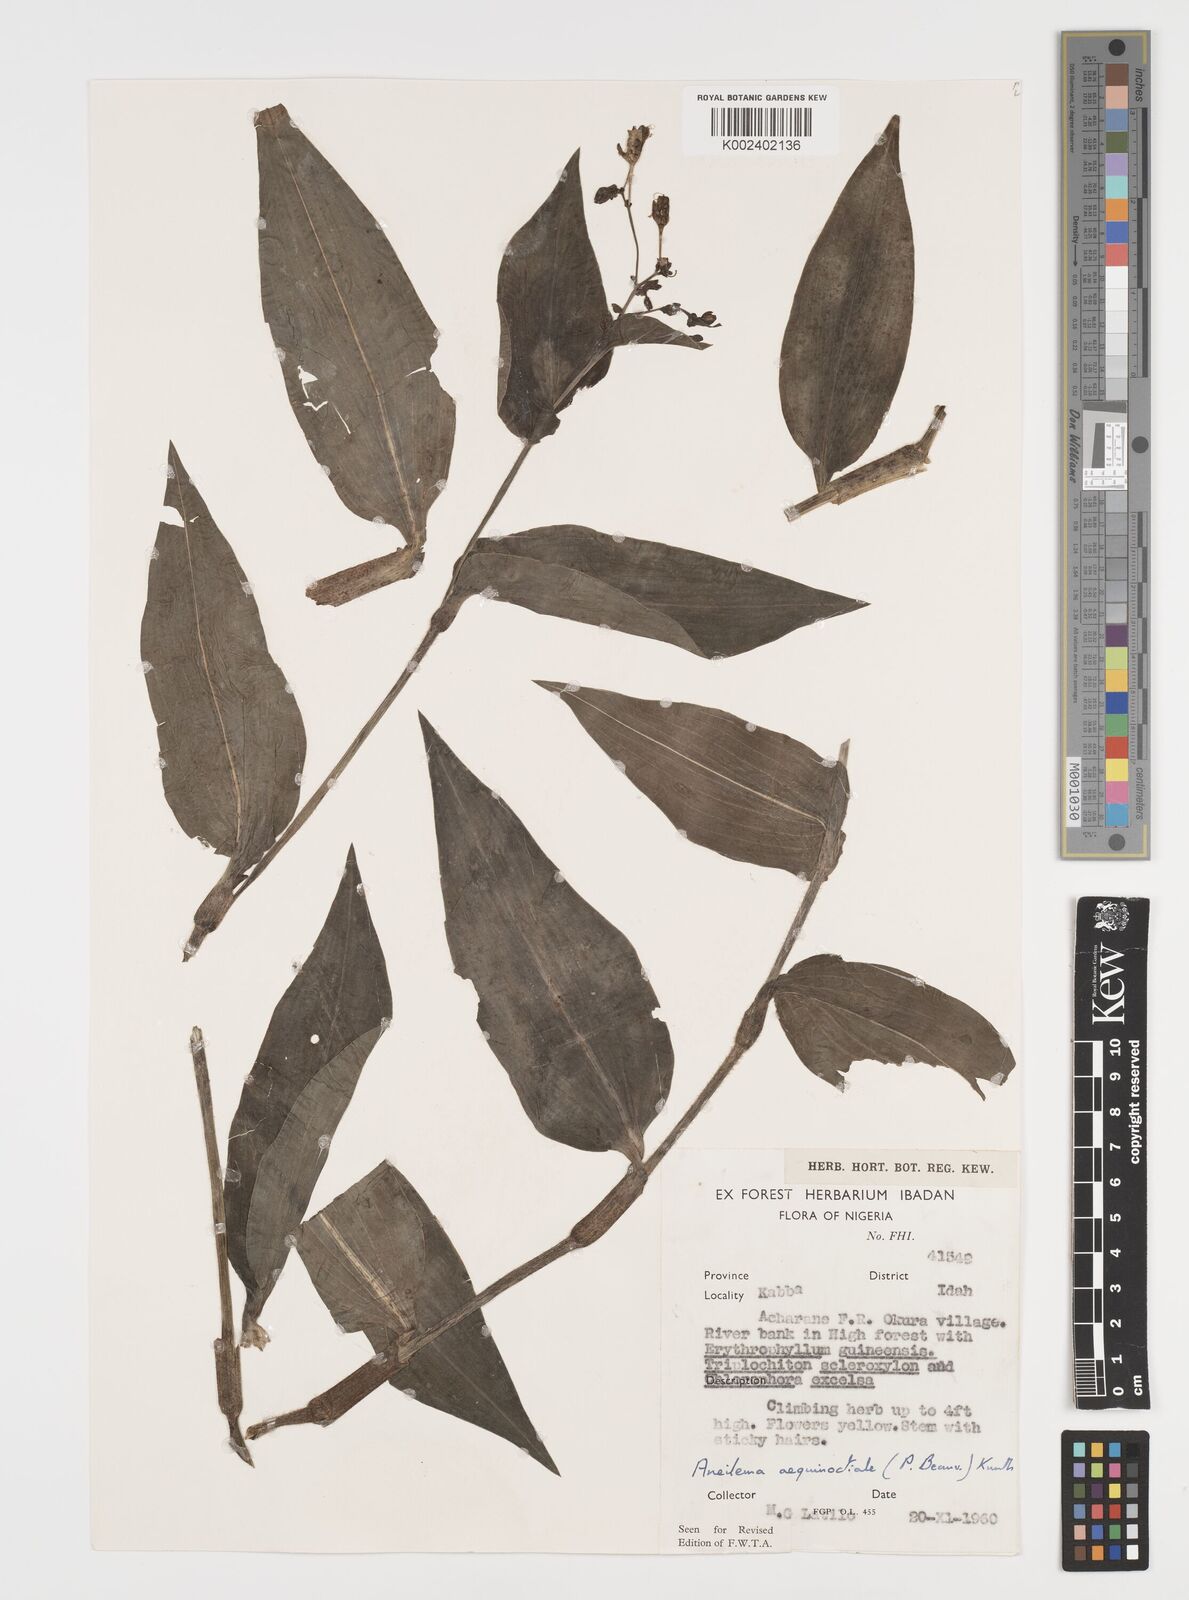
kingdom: Plantae
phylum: Tracheophyta
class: Liliopsida
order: Commelinales
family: Commelinaceae
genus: Aneilema
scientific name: Aneilema aequinoctiale
